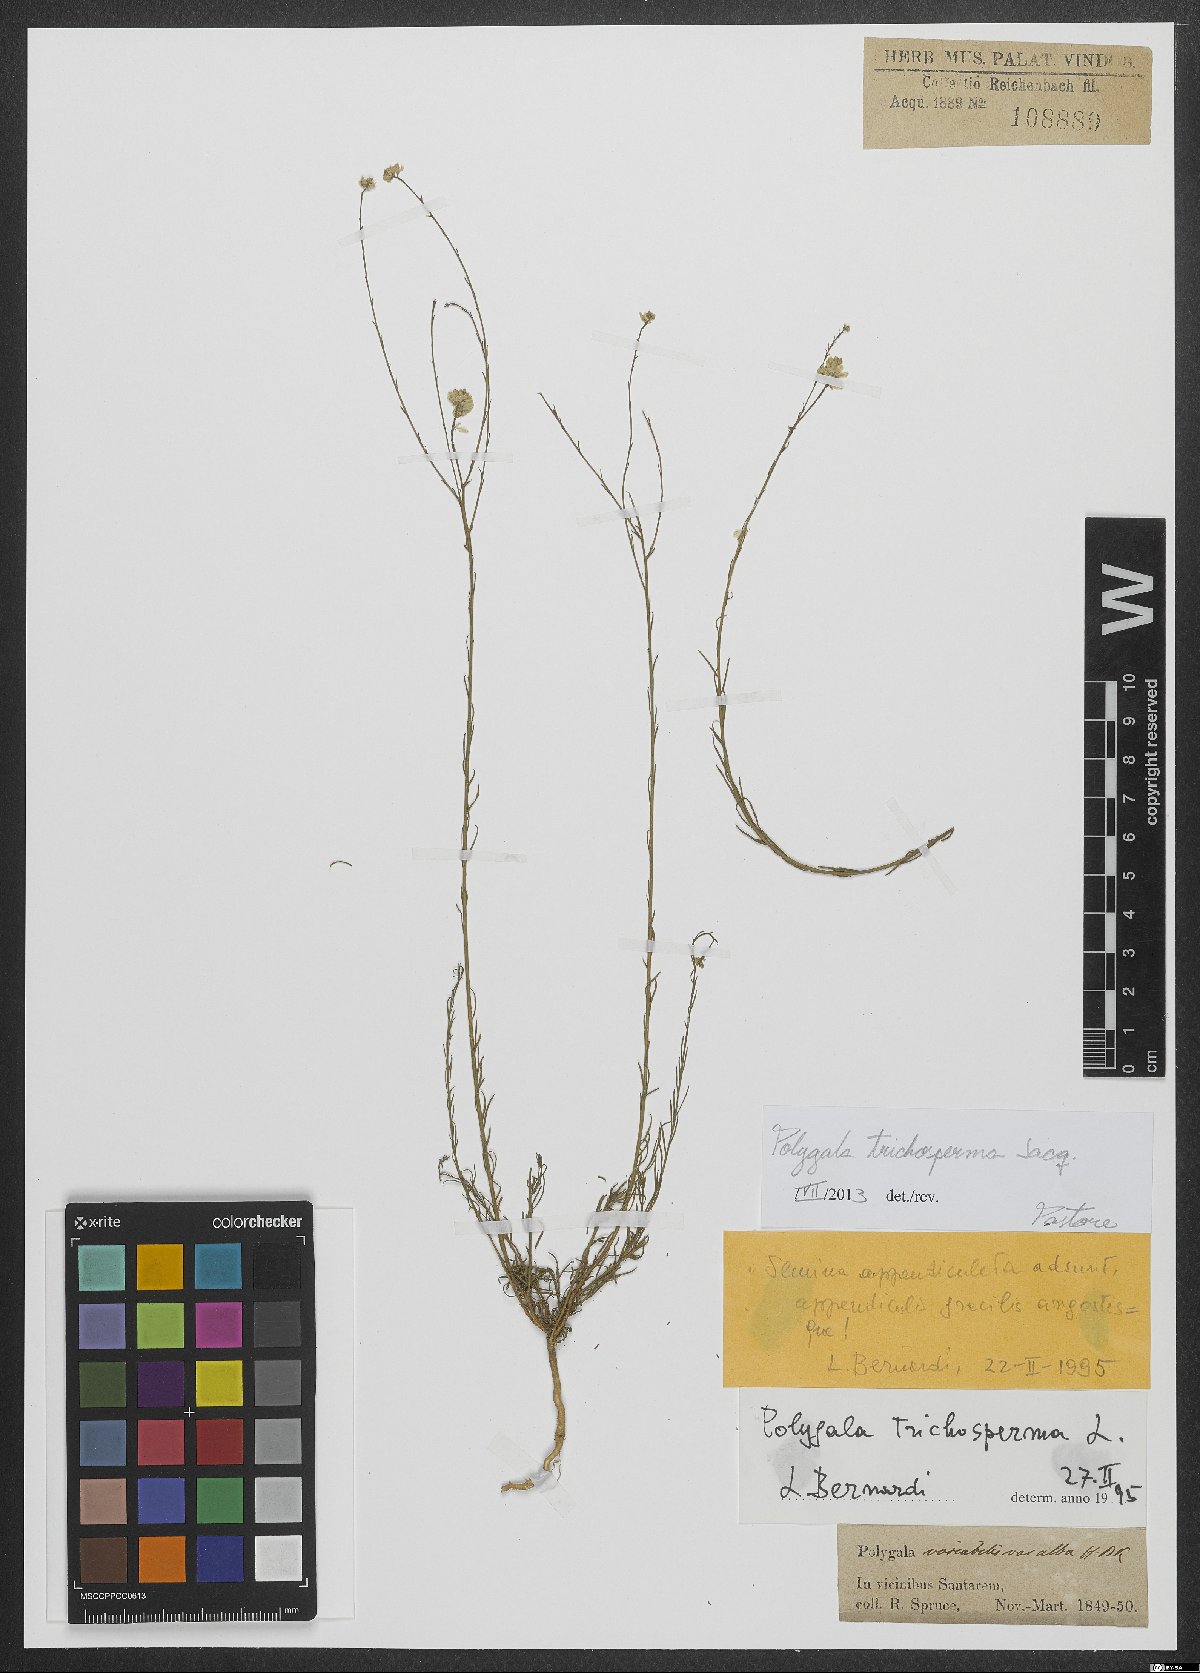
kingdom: Plantae
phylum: Tracheophyta
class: Magnoliopsida
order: Fabales
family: Polygalaceae
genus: Polygala
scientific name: Polygala trichosperma
